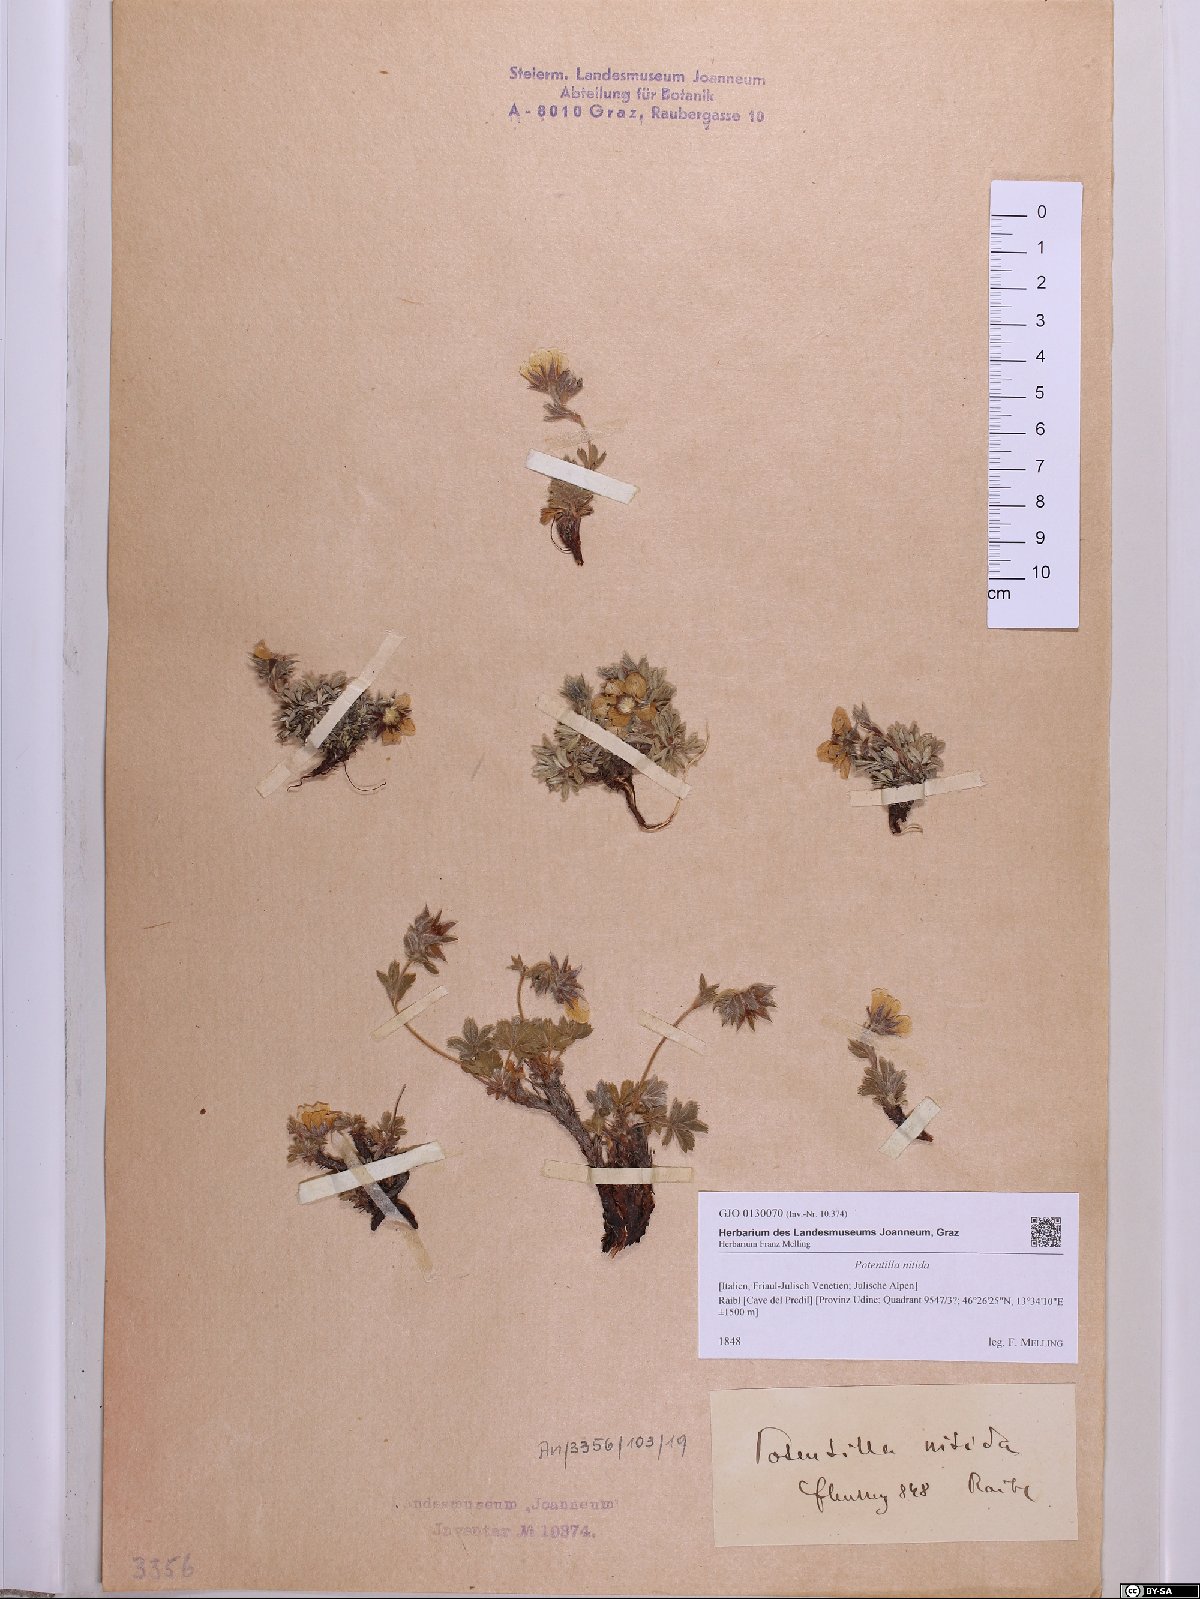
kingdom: Plantae
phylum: Tracheophyta
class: Magnoliopsida
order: Rosales
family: Rosaceae
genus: Potentilla
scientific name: Potentilla nitida
